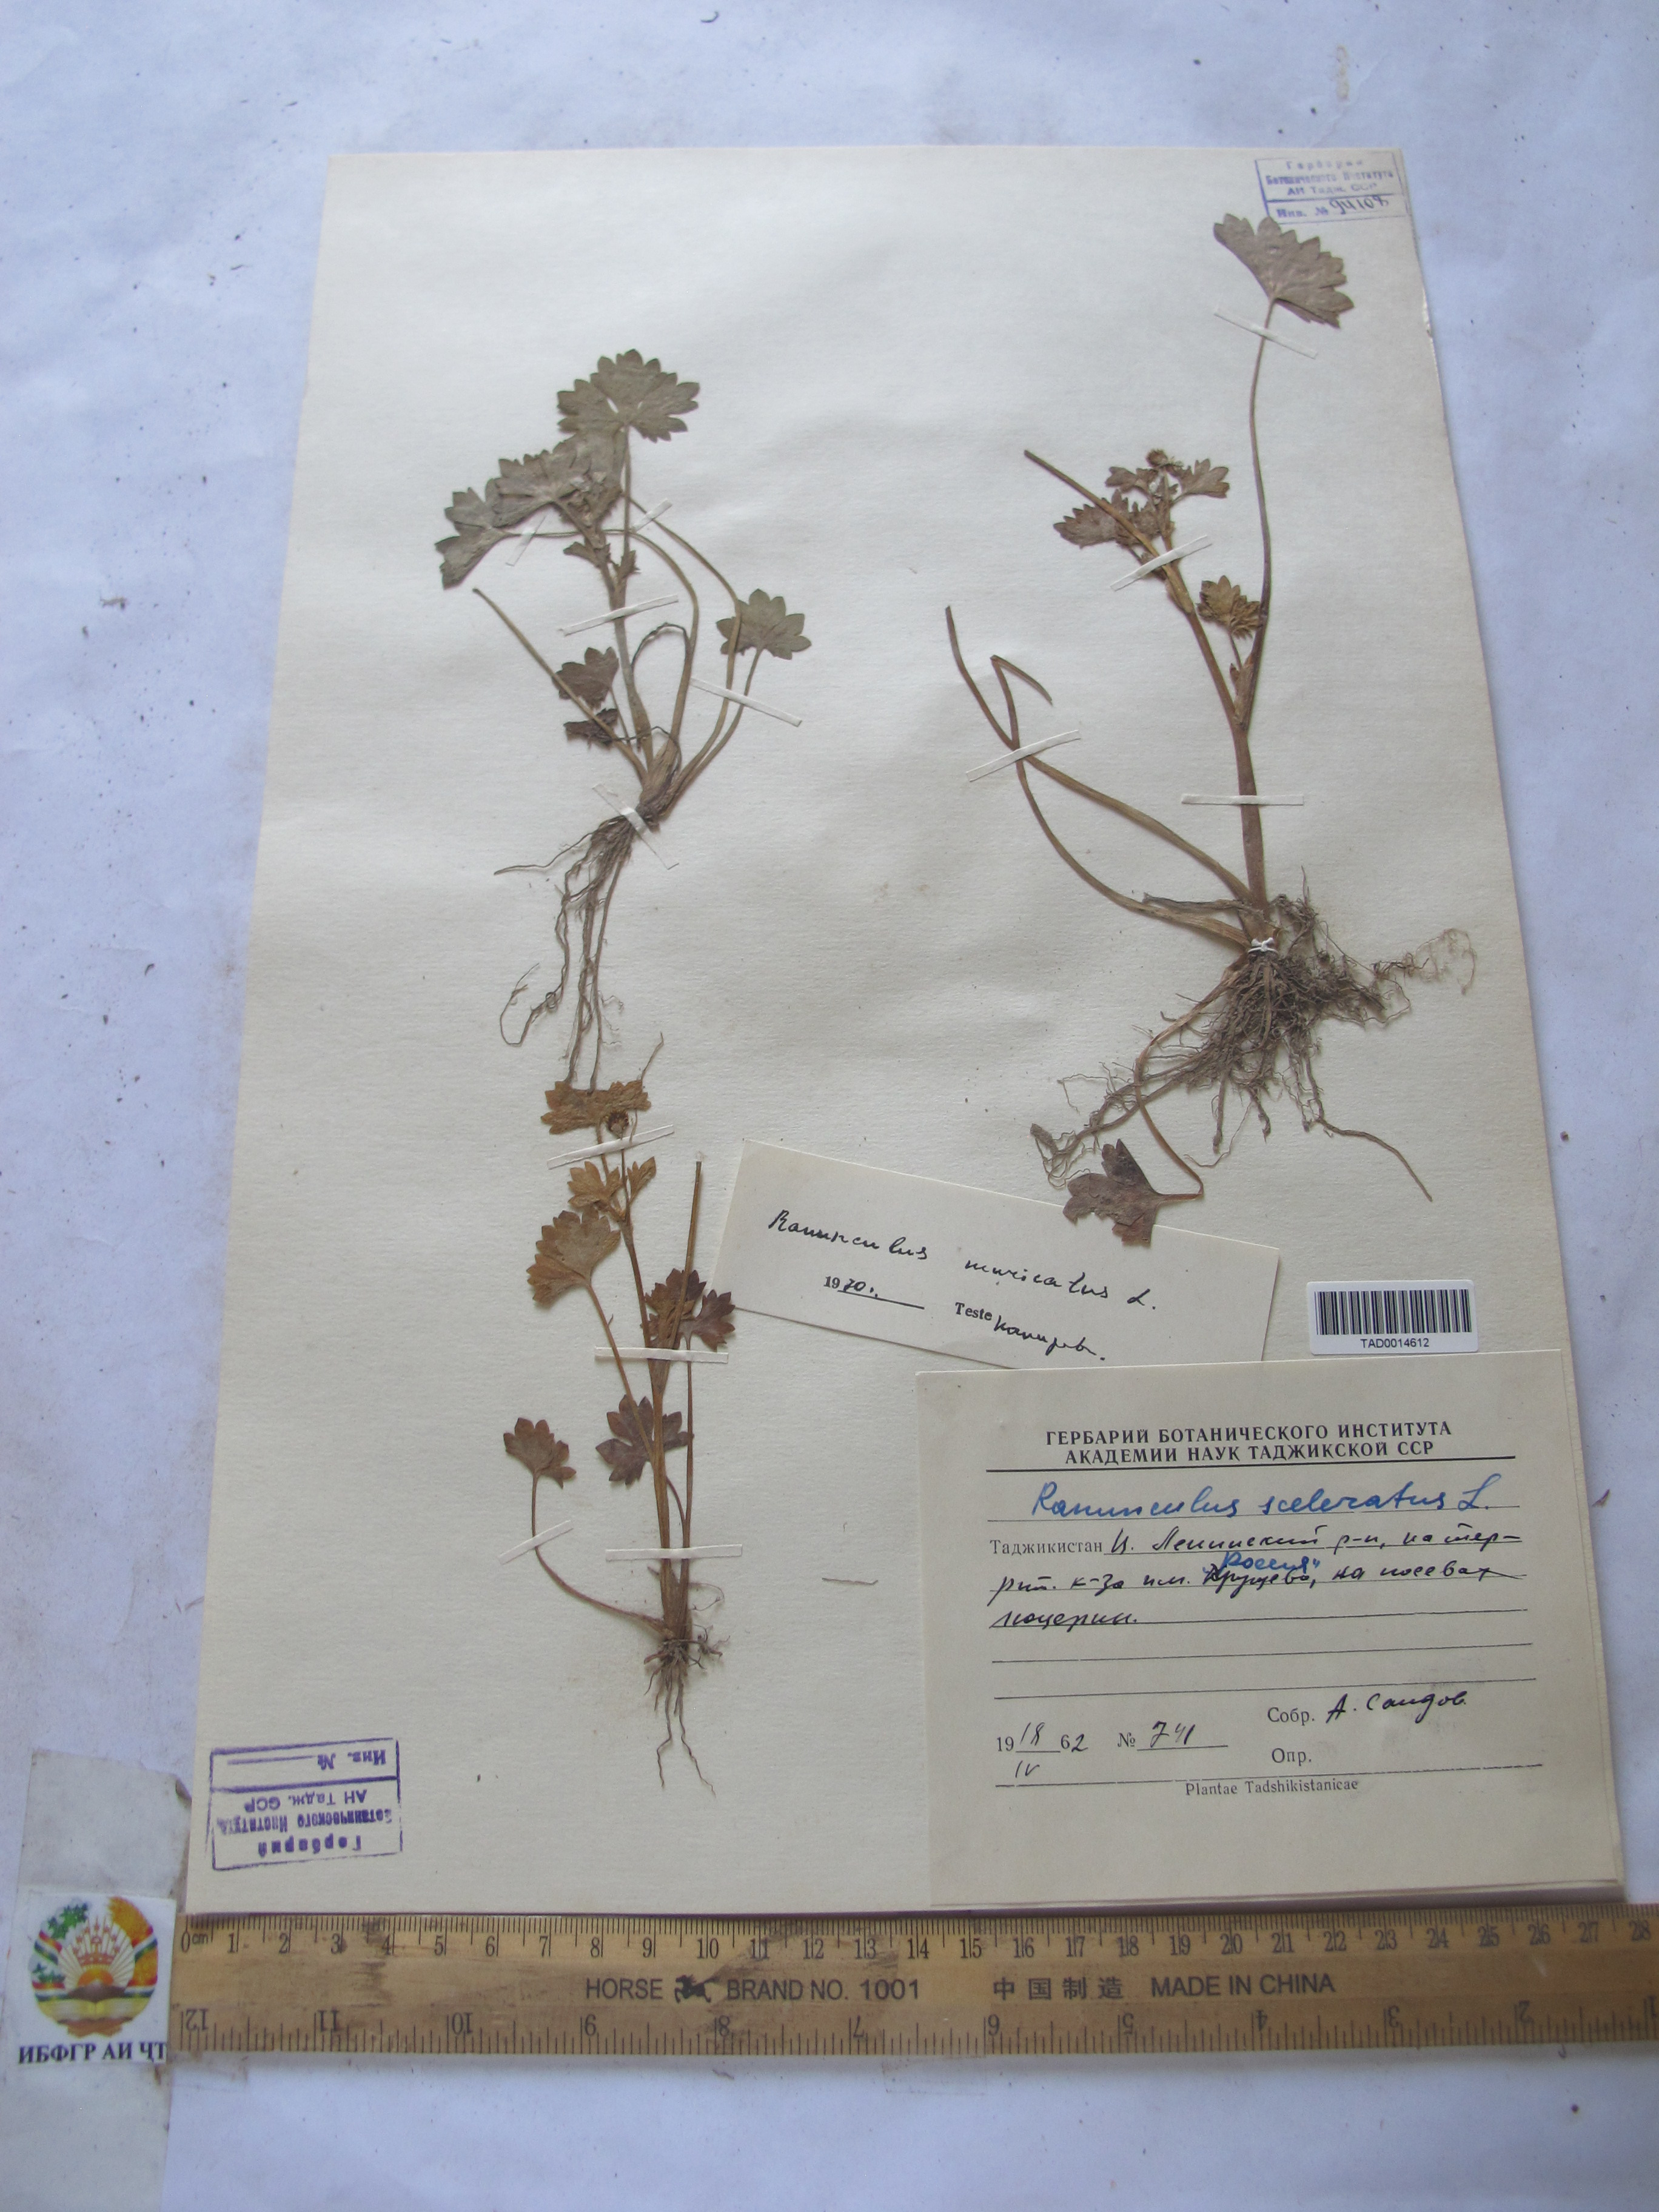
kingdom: Plantae
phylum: Tracheophyta
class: Magnoliopsida
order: Ranunculales
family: Ranunculaceae
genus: Ranunculus
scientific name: Ranunculus sceleratus
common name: Celery-leaved buttercup
